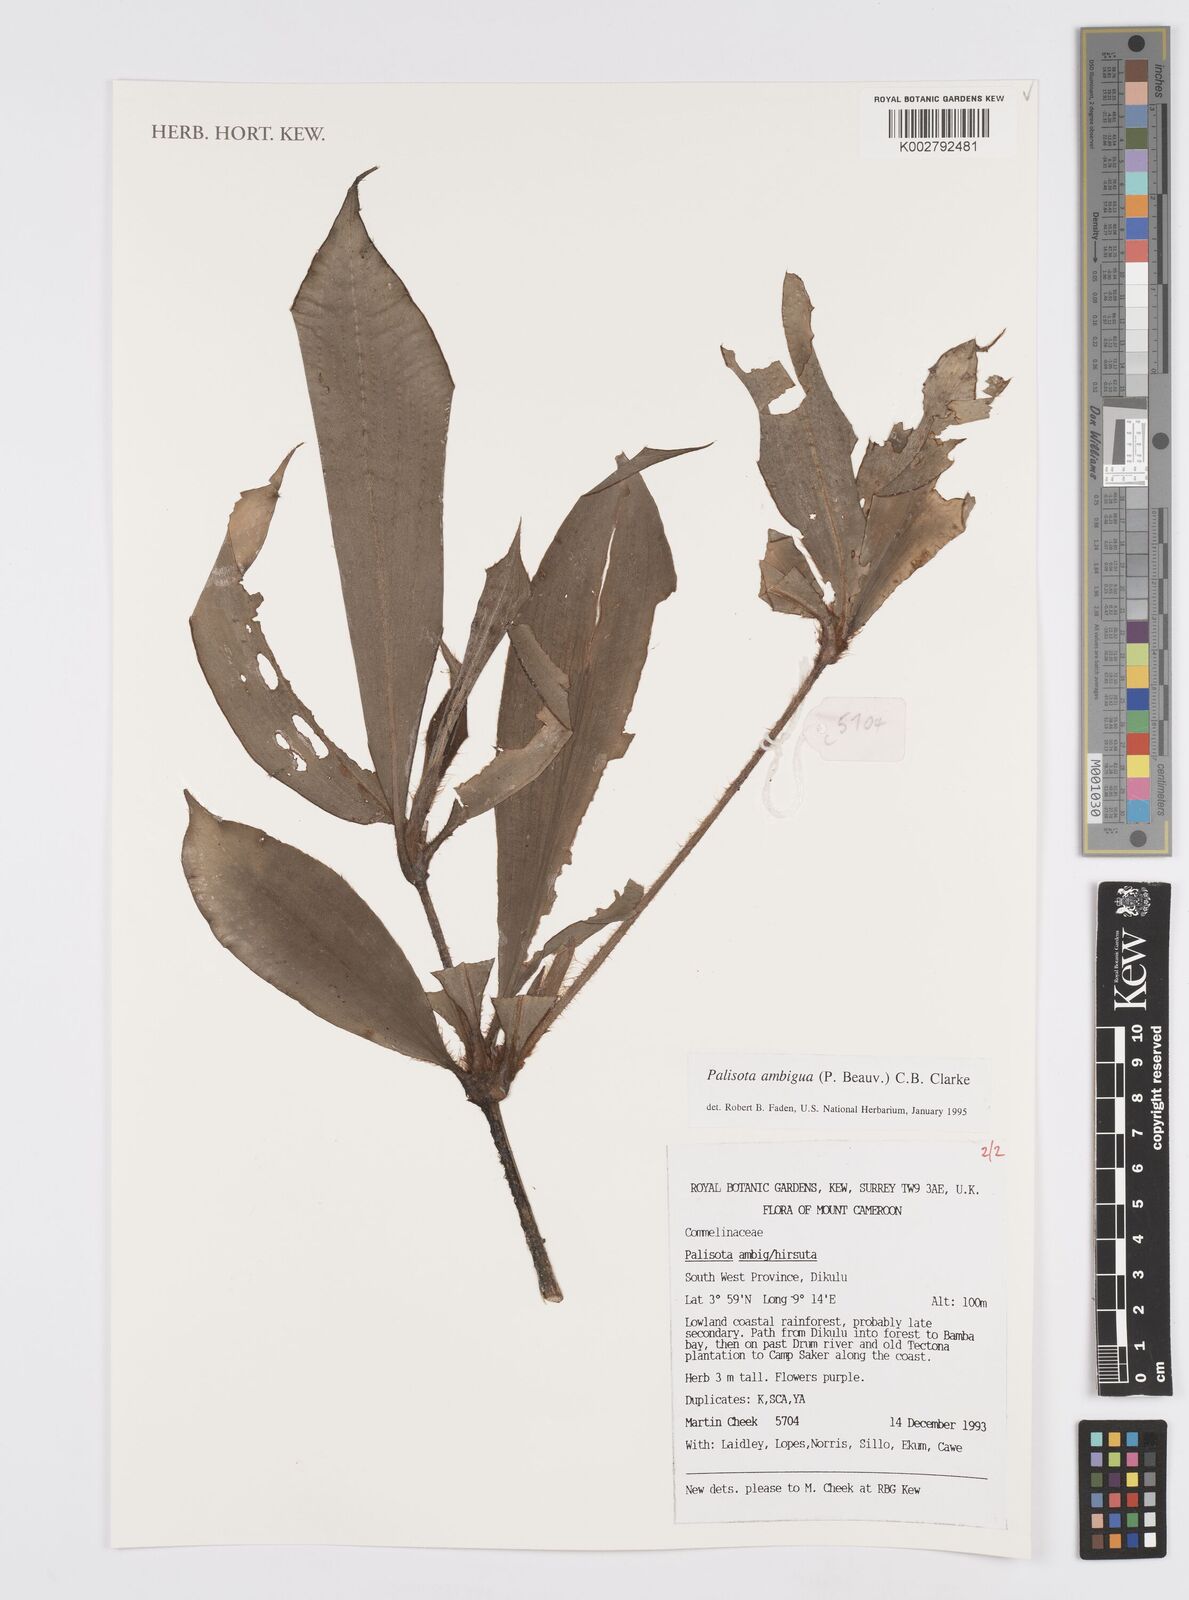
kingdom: Plantae
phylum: Tracheophyta
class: Liliopsida
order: Commelinales
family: Commelinaceae
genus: Palisota
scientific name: Palisota ambigua
